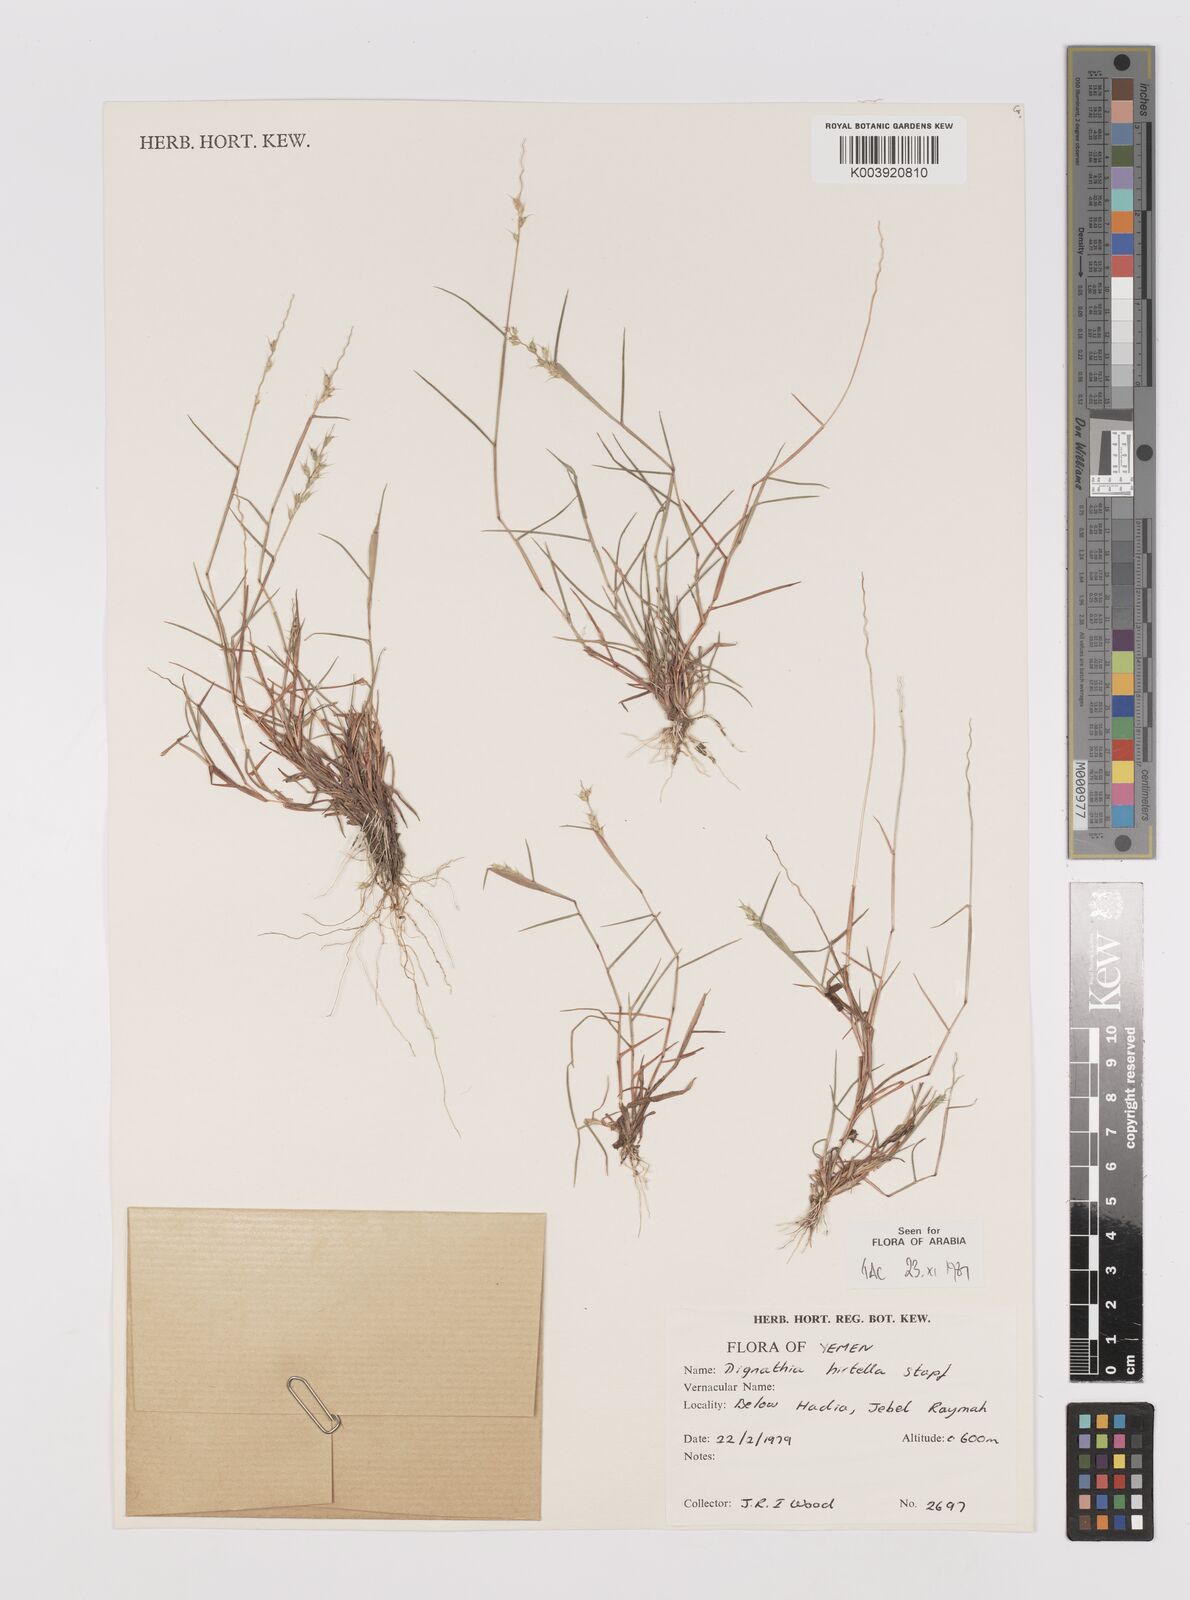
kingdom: Plantae
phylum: Tracheophyta
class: Liliopsida
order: Poales
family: Poaceae
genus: Dignathia
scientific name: Dignathia hirtella
